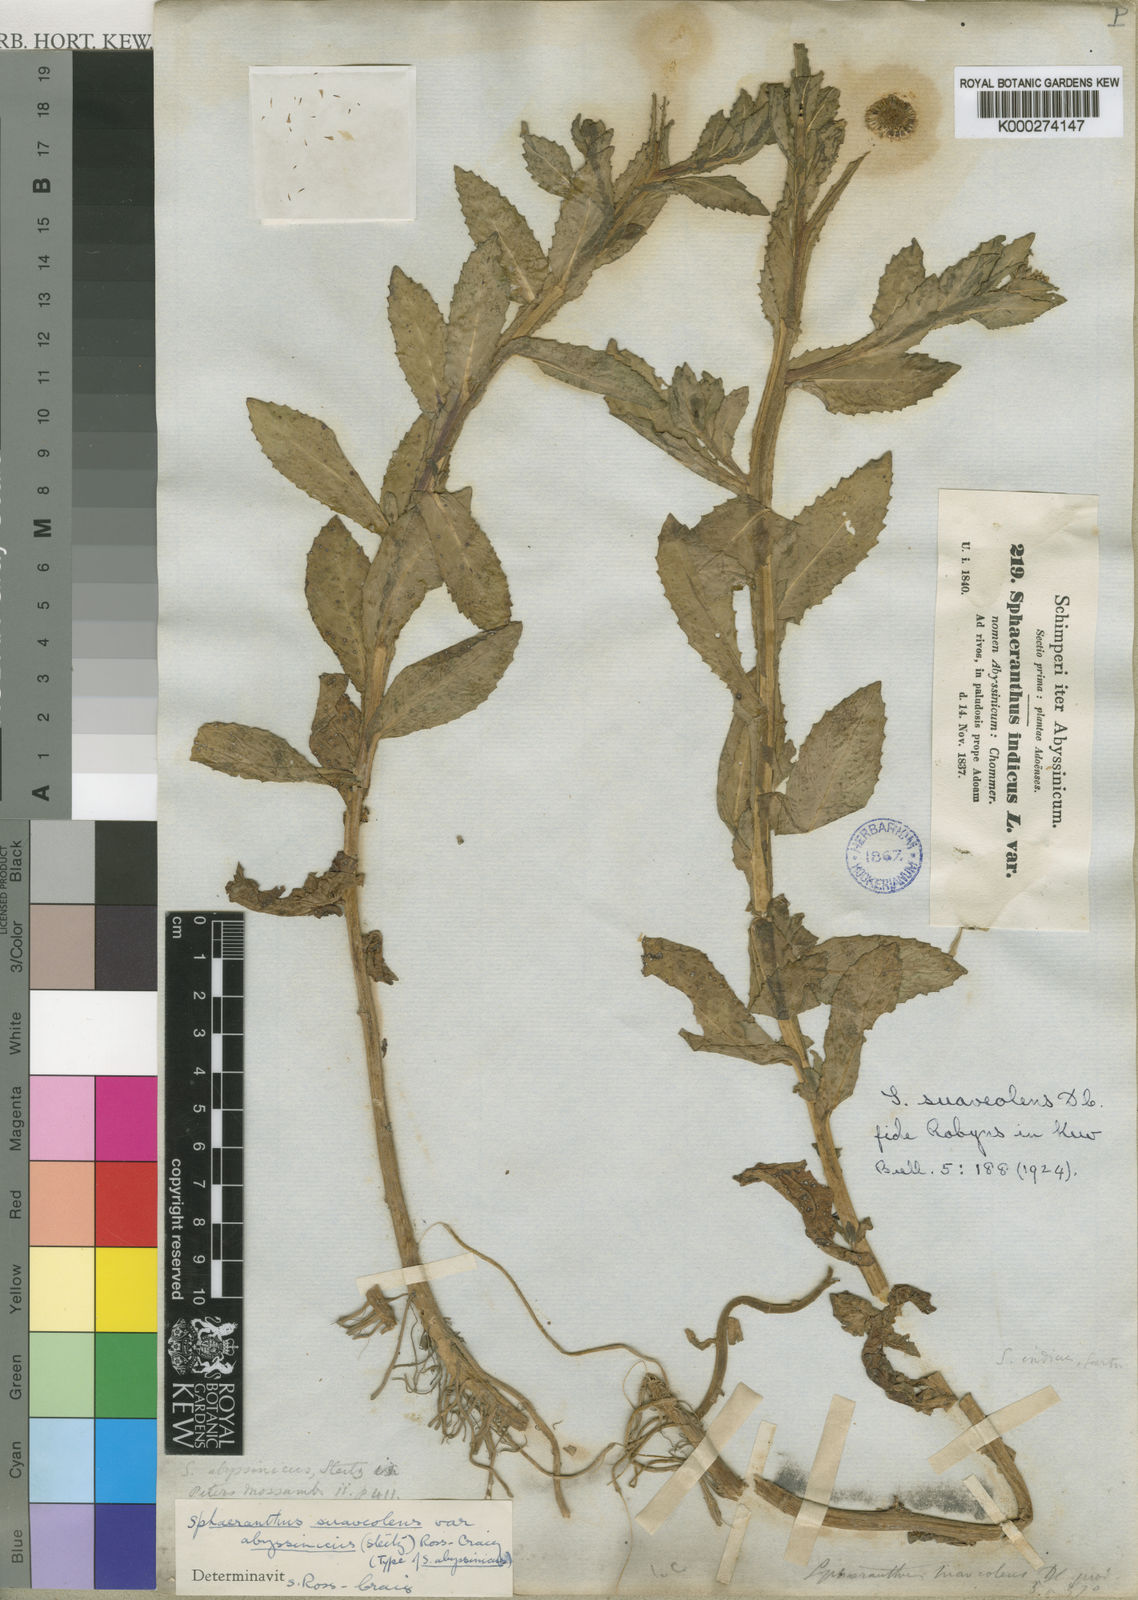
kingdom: Plantae
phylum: Tracheophyta
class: Magnoliopsida
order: Asterales
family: Asteraceae
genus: Sphaeranthus
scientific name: Sphaeranthus suaveolens
